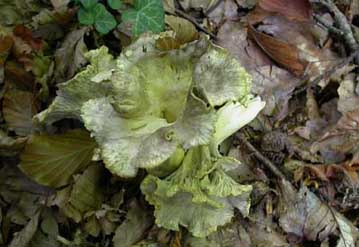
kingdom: Fungi
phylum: Basidiomycota
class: Agaricomycetes
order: Cantharellales
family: Hydnaceae
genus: Cantharellus
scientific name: Cantharellus melanoxeros
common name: sværtende kantarel
